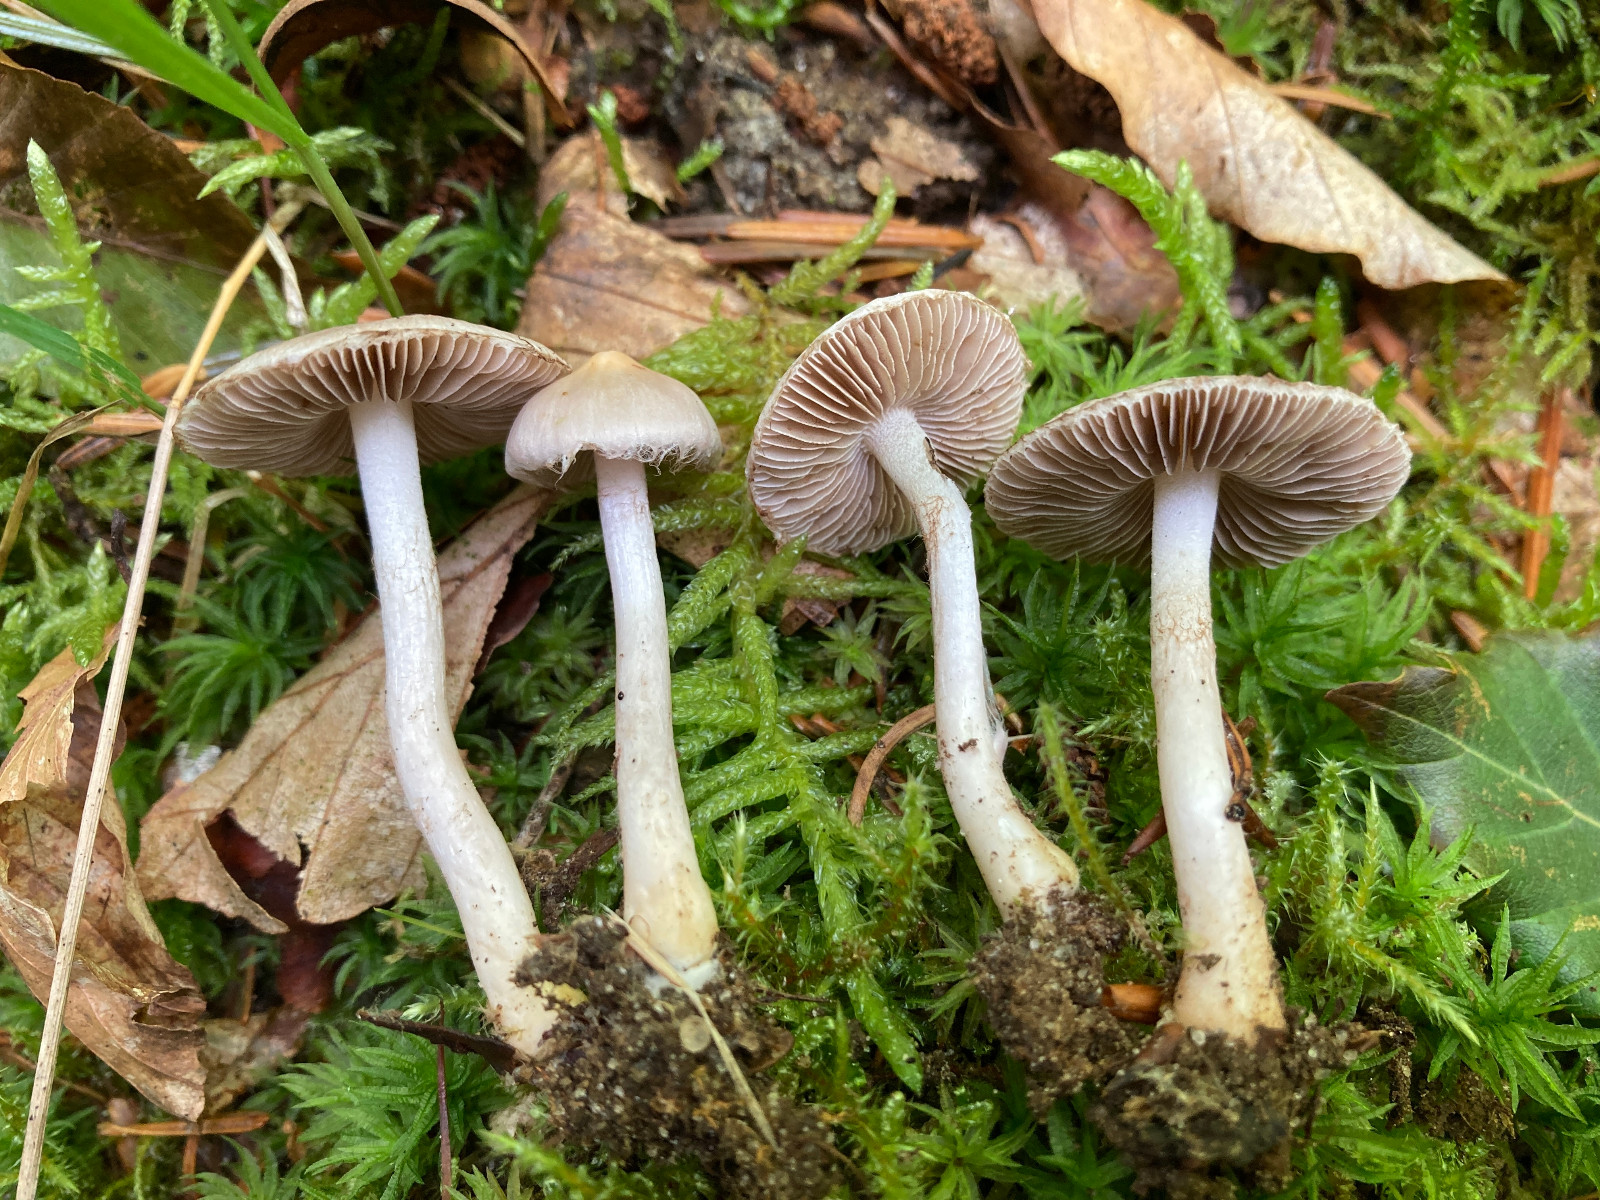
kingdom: Fungi
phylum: Basidiomycota
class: Agaricomycetes
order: Agaricales
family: Inocybaceae
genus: Inocybe
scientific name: Inocybe
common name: almindelig trævlhat
